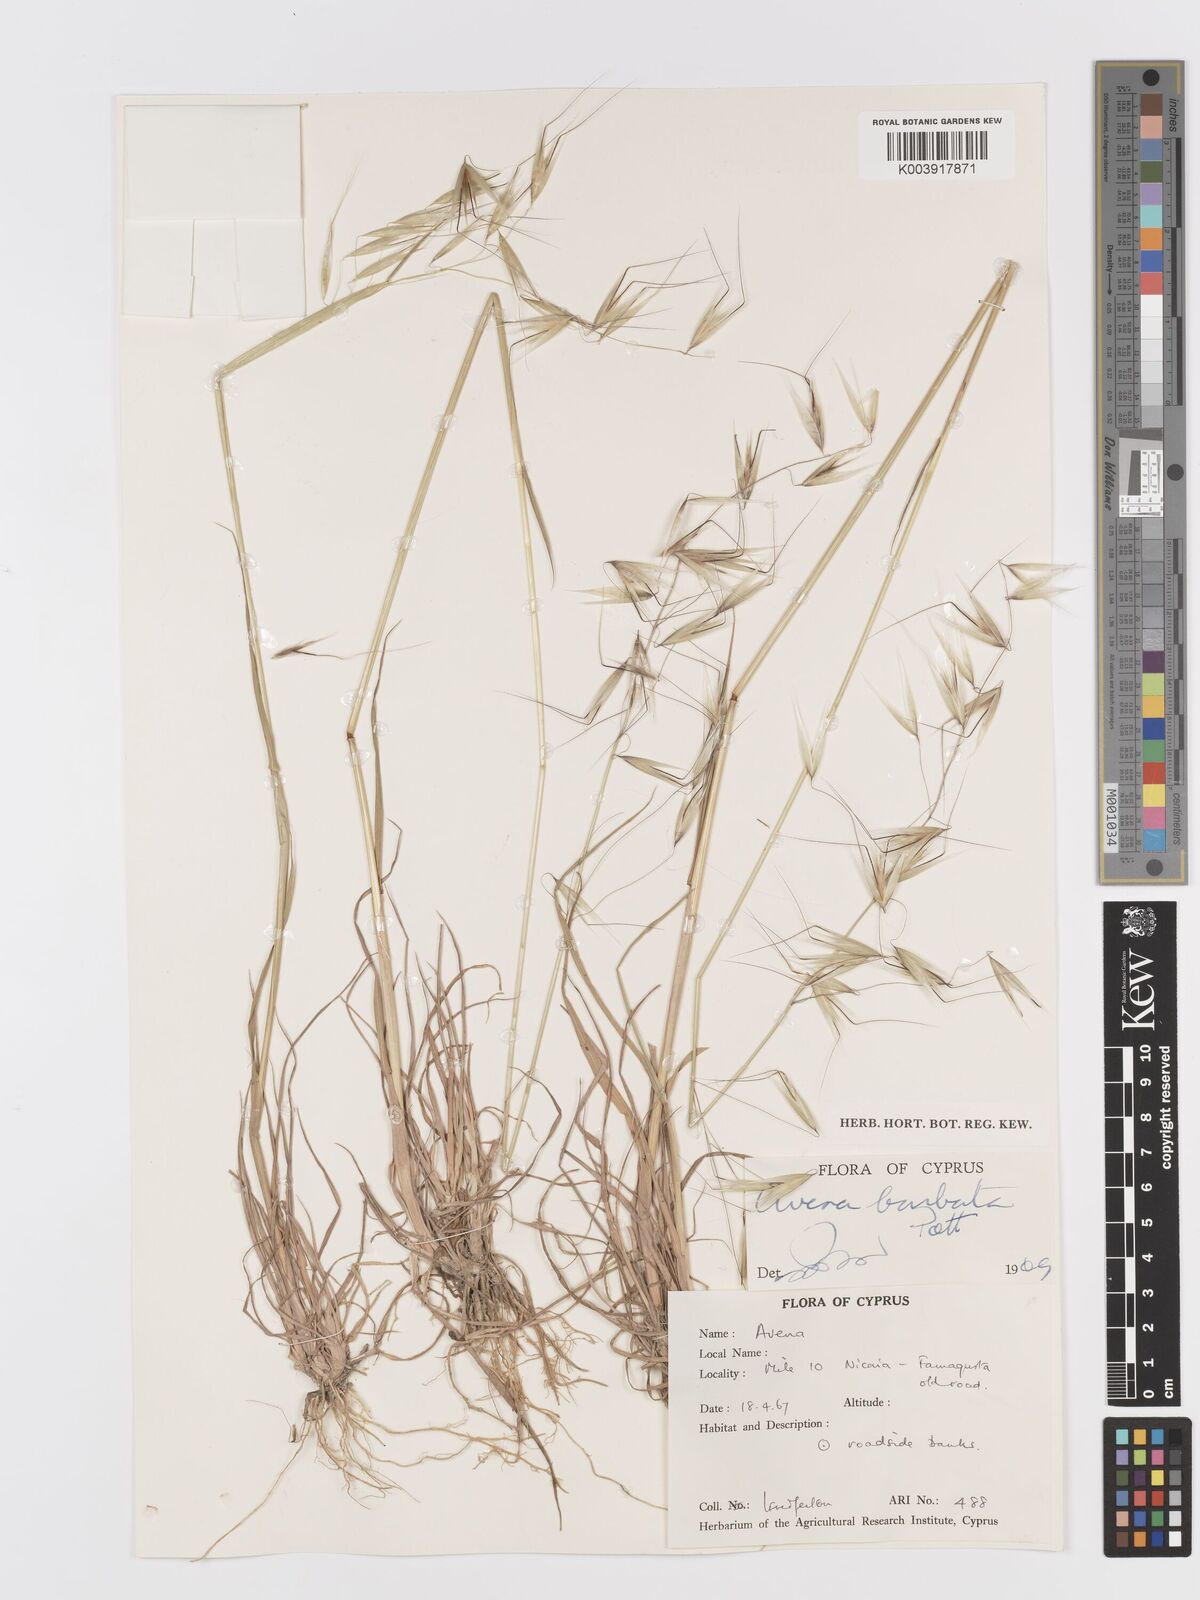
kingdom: Plantae
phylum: Tracheophyta
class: Liliopsida
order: Poales
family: Poaceae
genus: Avena
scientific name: Avena
